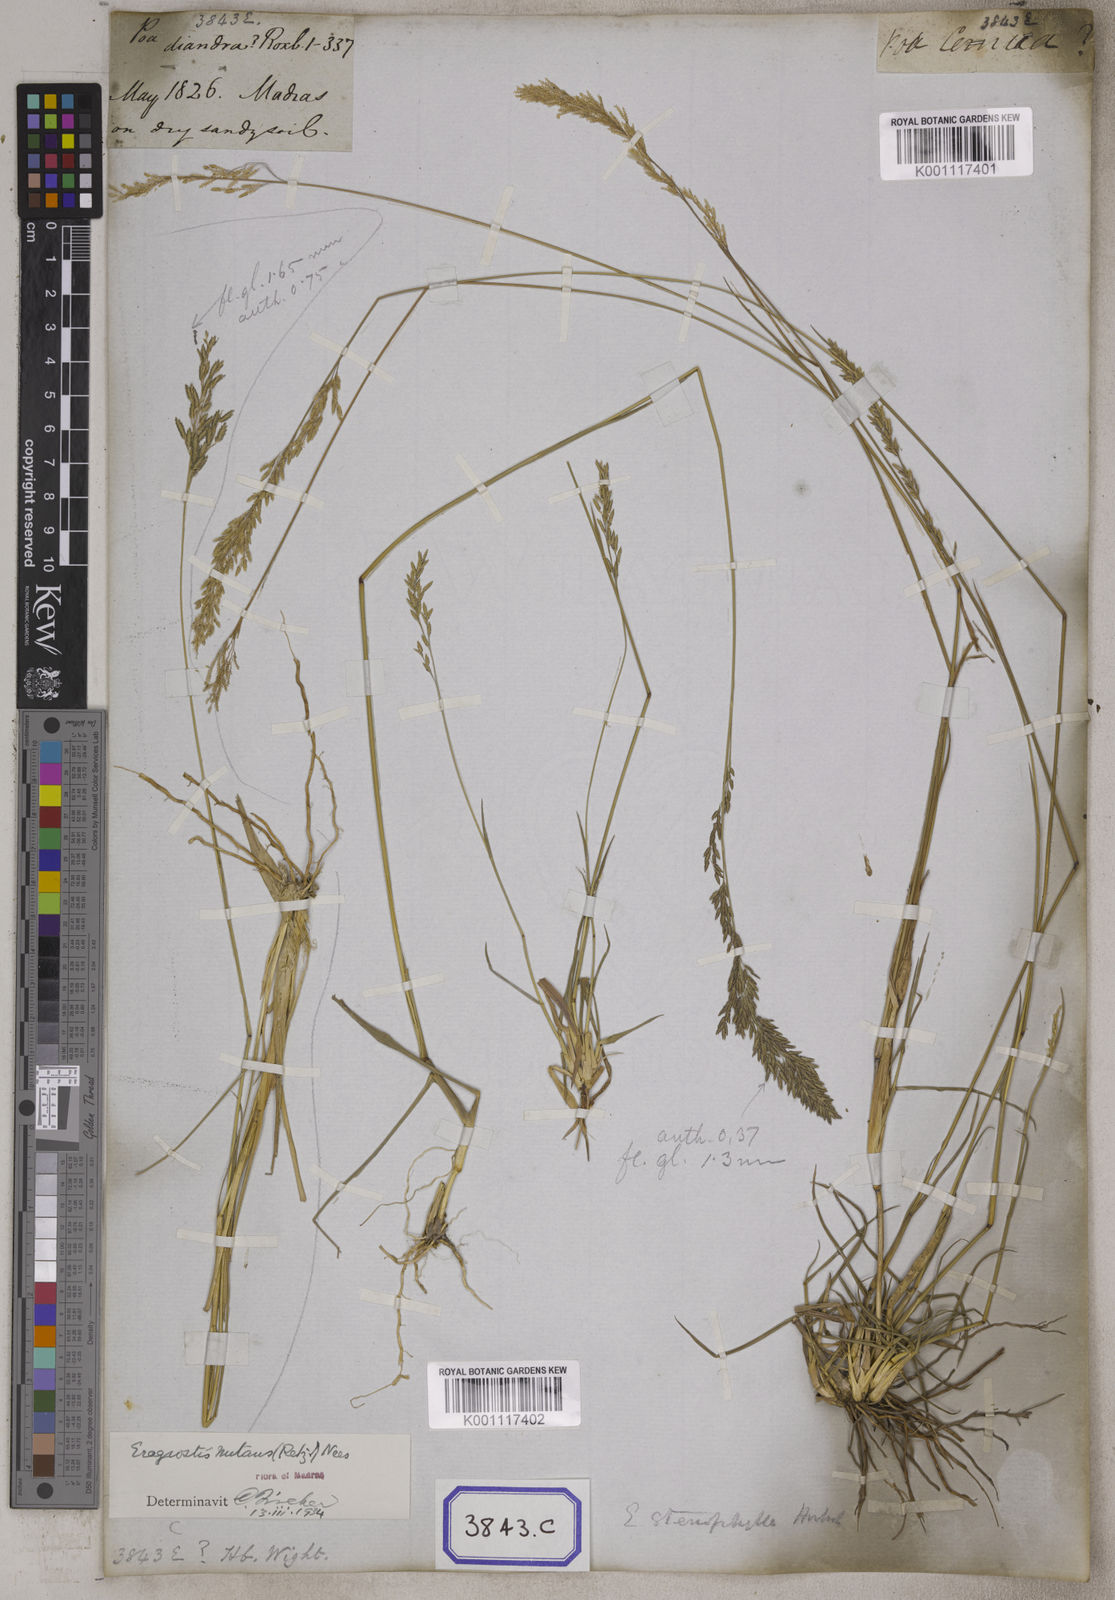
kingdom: Plantae
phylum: Tracheophyta
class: Liliopsida
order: Poales
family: Poaceae
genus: Eragrostis
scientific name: Eragrostis
